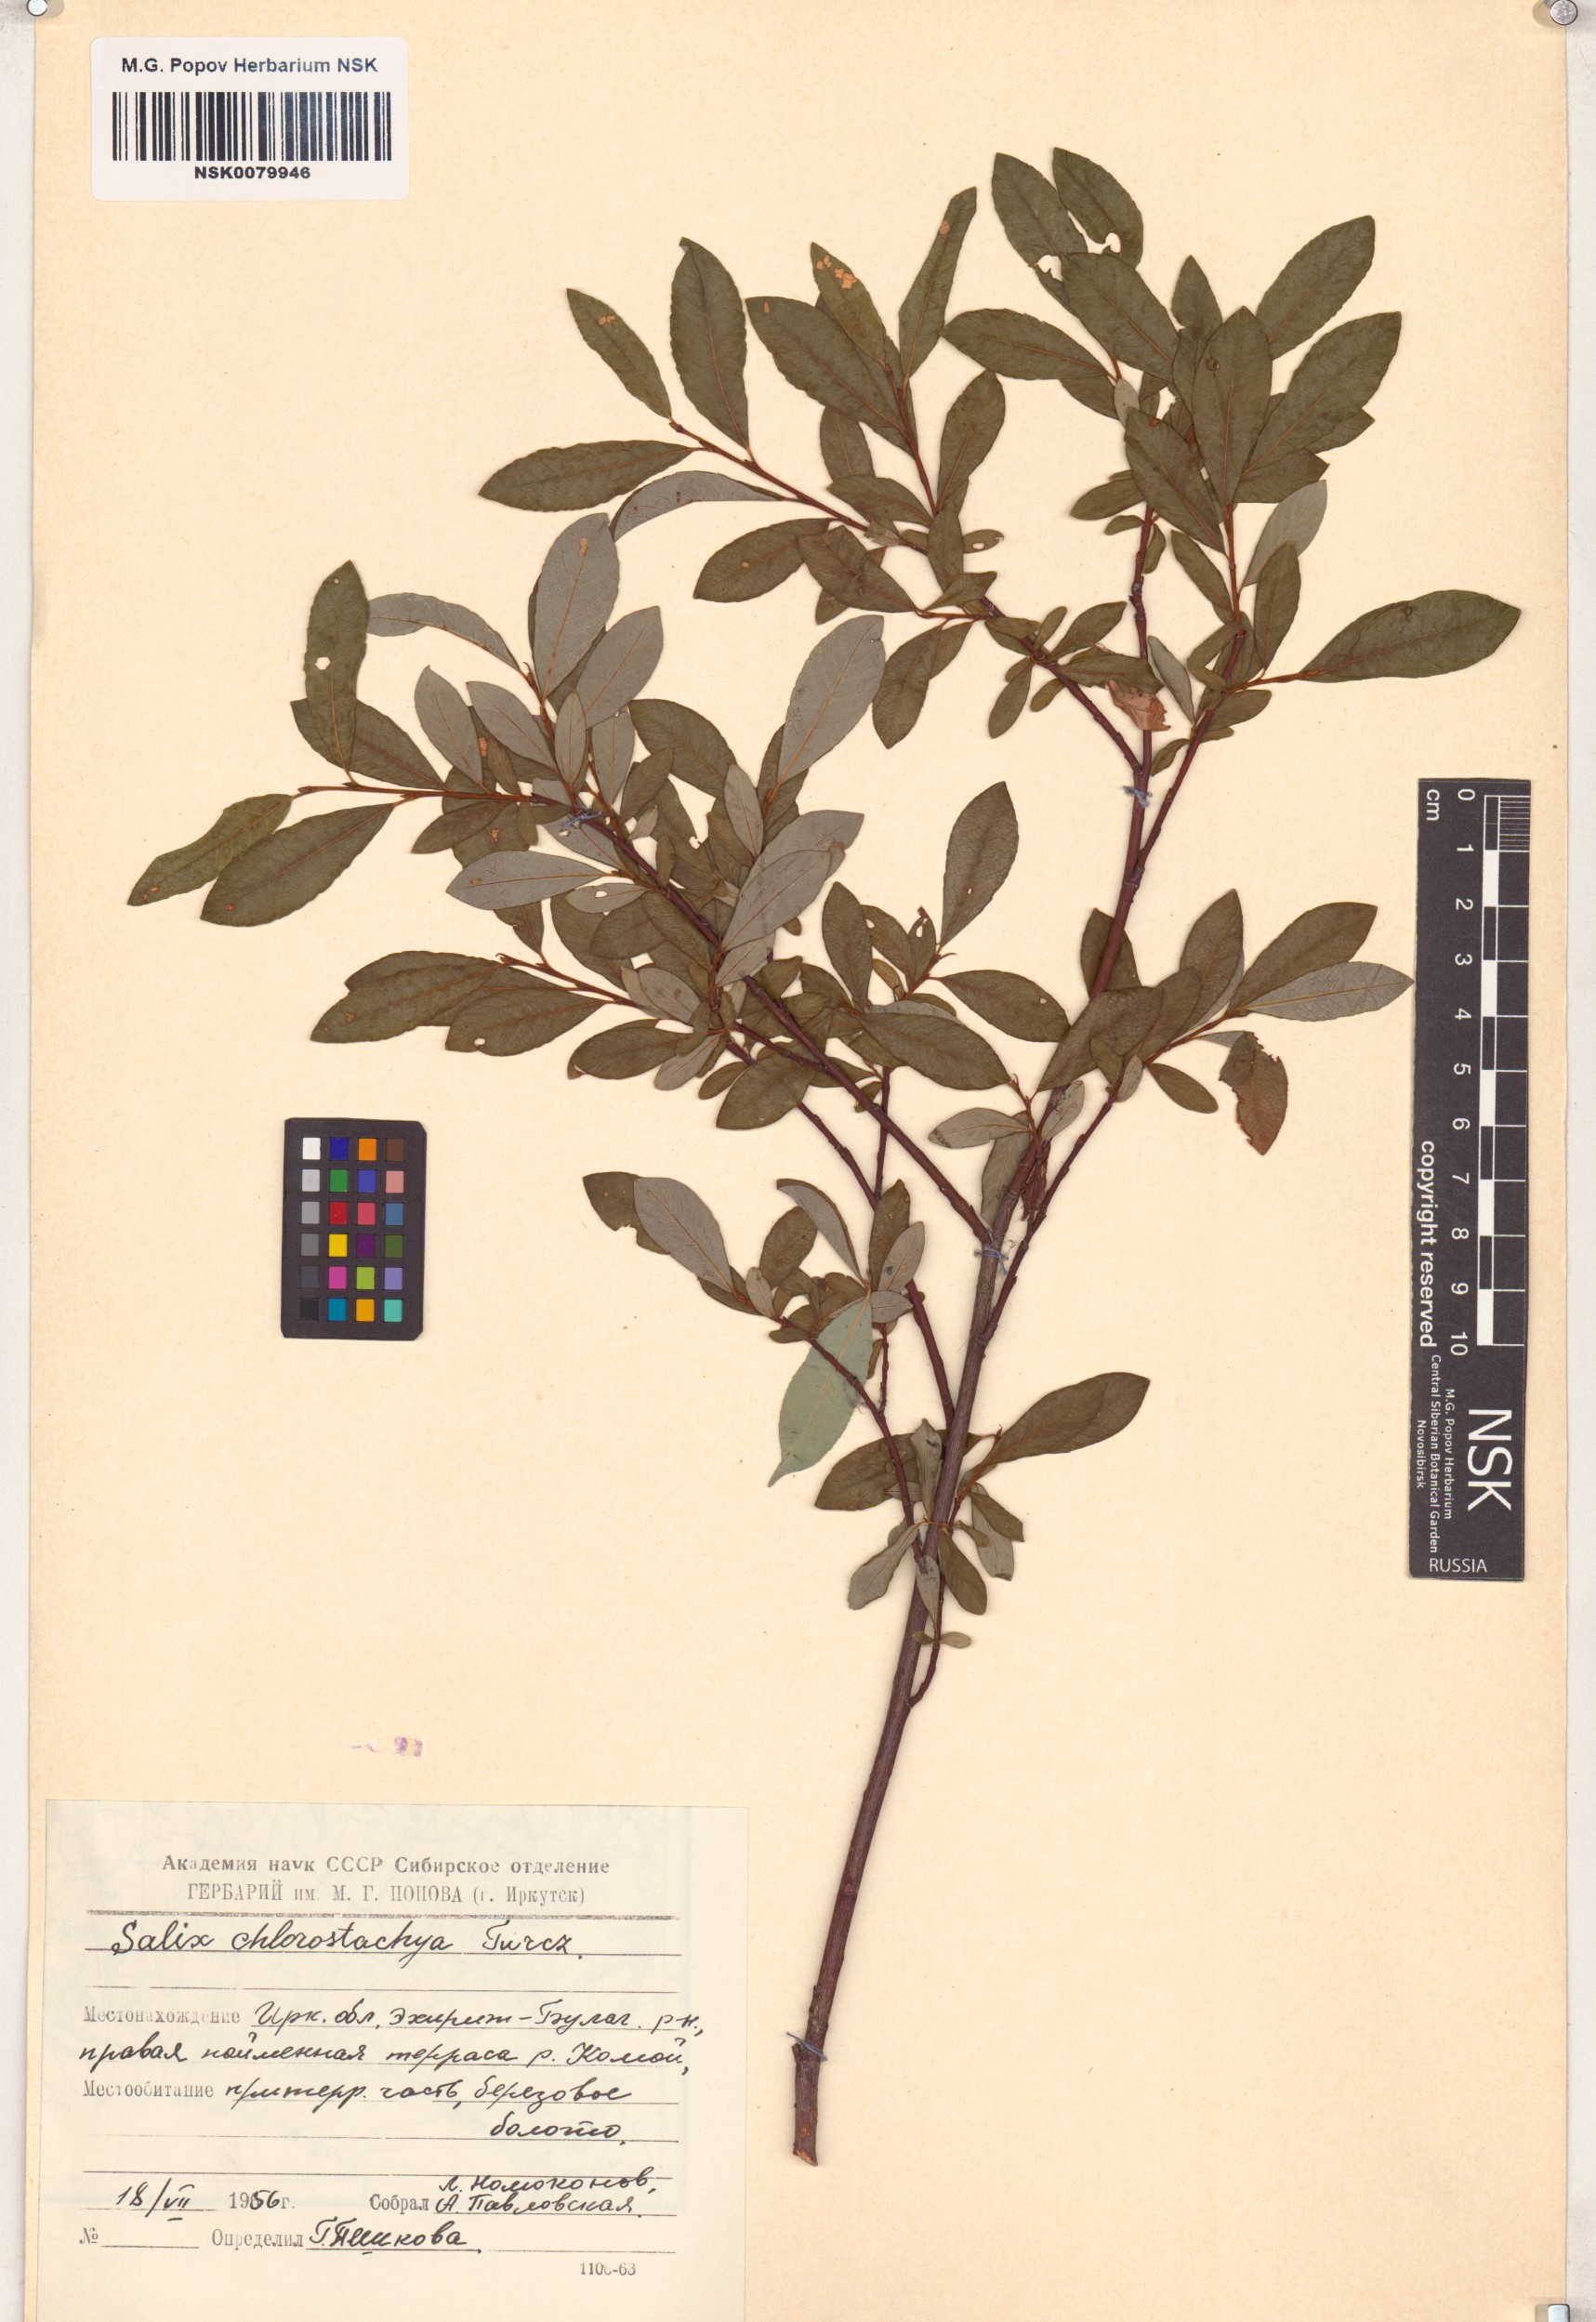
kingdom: Plantae
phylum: Tracheophyta
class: Magnoliopsida
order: Malpighiales
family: Salicaceae
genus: Salix
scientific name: Salix rhamnifolia
